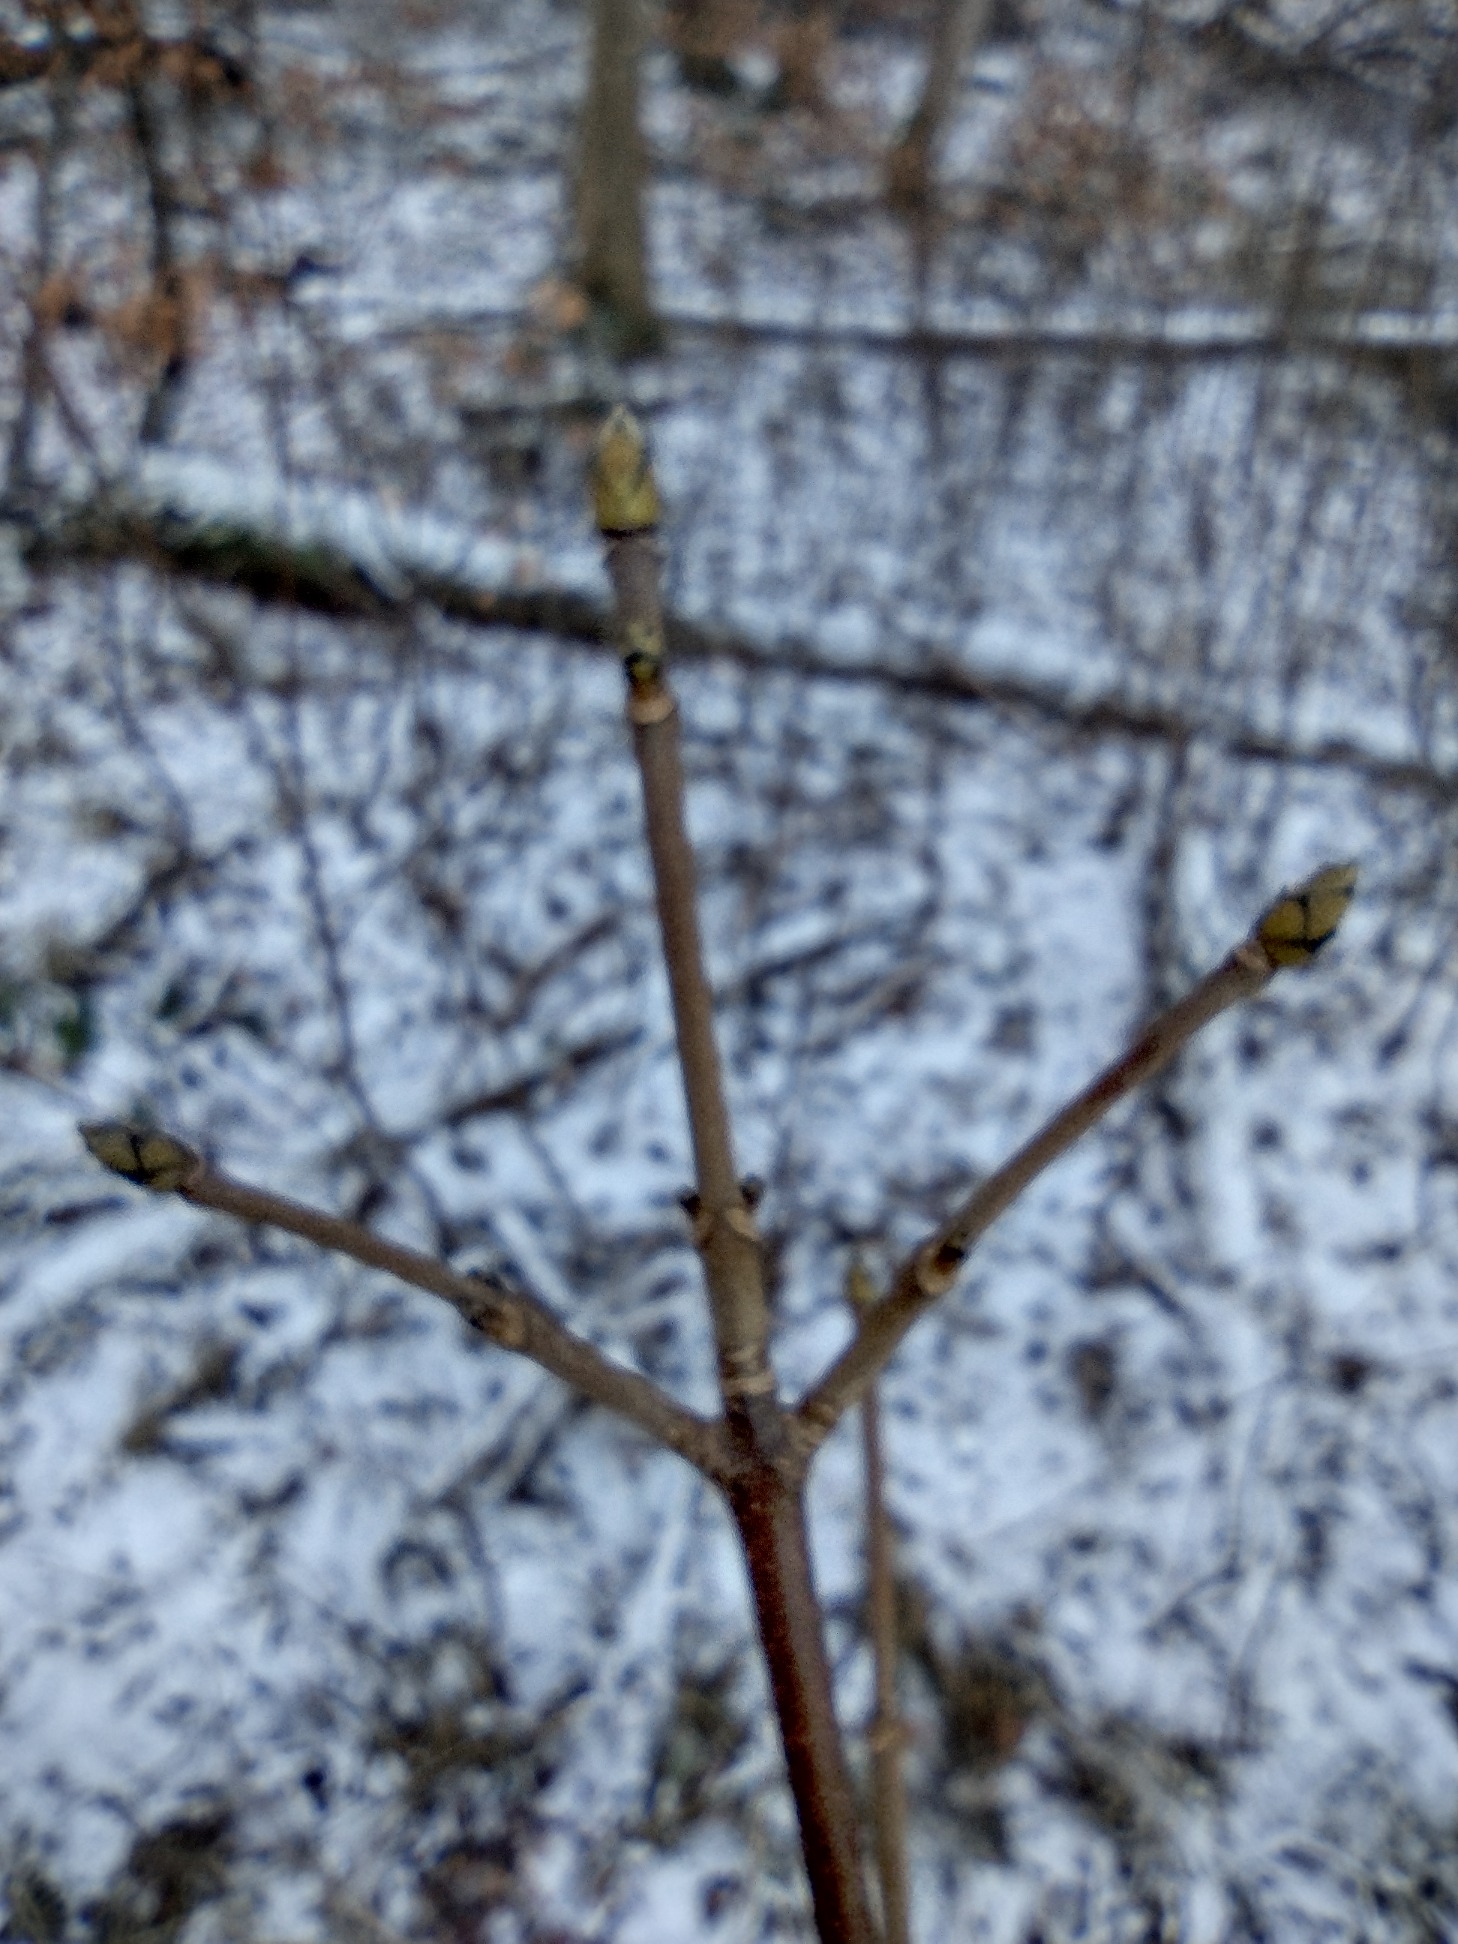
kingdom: Plantae
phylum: Tracheophyta
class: Magnoliopsida
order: Sapindales
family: Sapindaceae
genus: Acer
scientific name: Acer pseudoplatanus
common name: Ahorn
